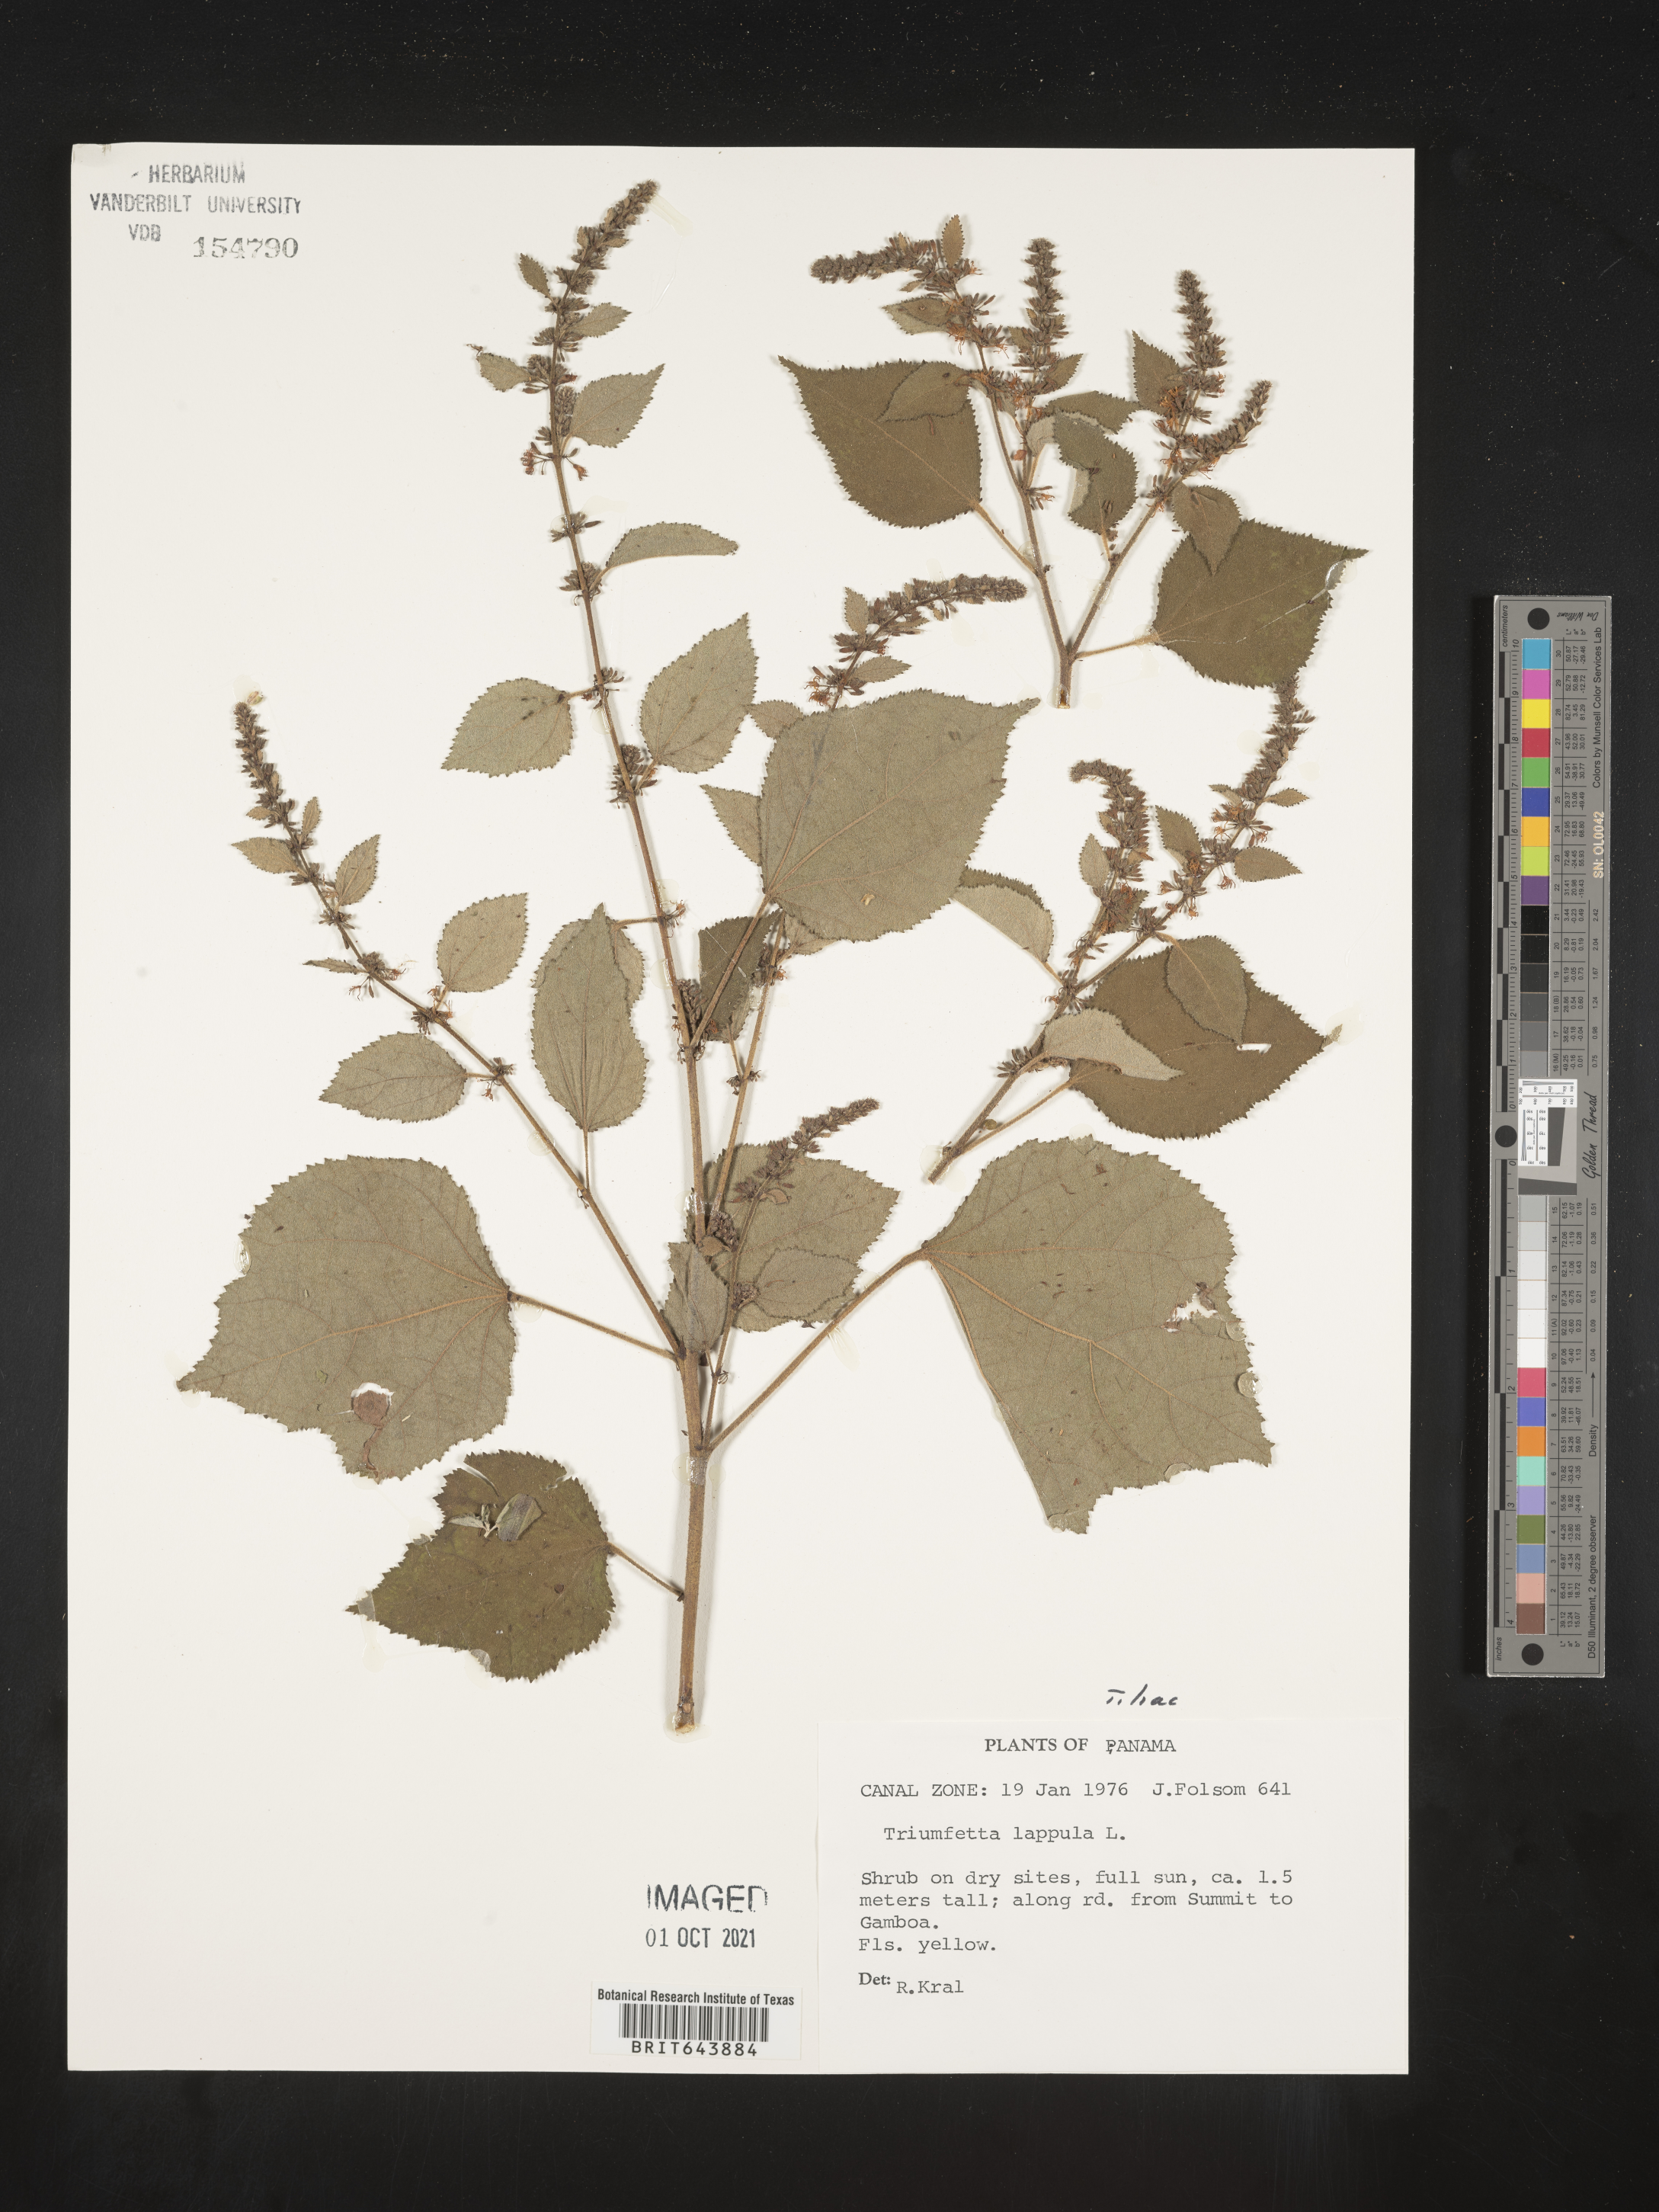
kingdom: Plantae
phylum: Tracheophyta
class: Magnoliopsida
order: Malvales
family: Malvaceae
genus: Triumfetta
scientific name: Triumfetta
